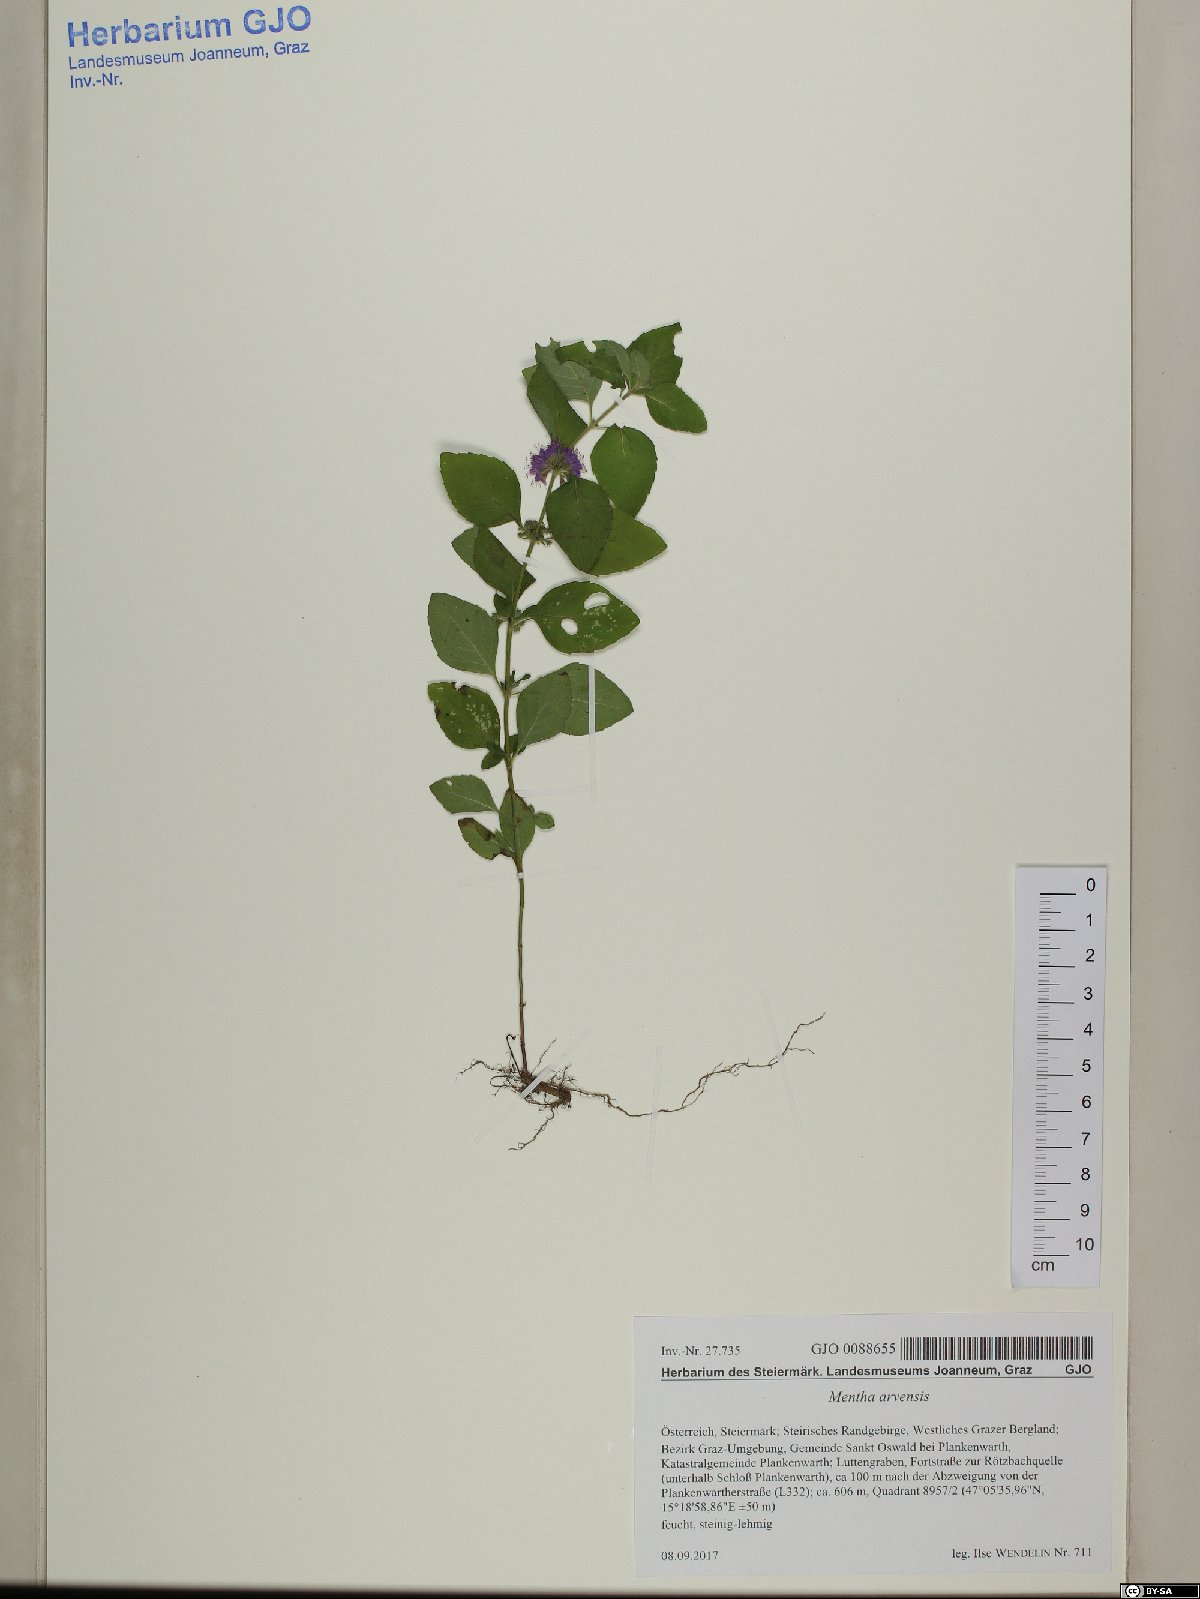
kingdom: Plantae
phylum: Tracheophyta
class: Magnoliopsida
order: Lamiales
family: Lamiaceae
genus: Mentha
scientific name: Mentha arvensis
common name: Corn mint
